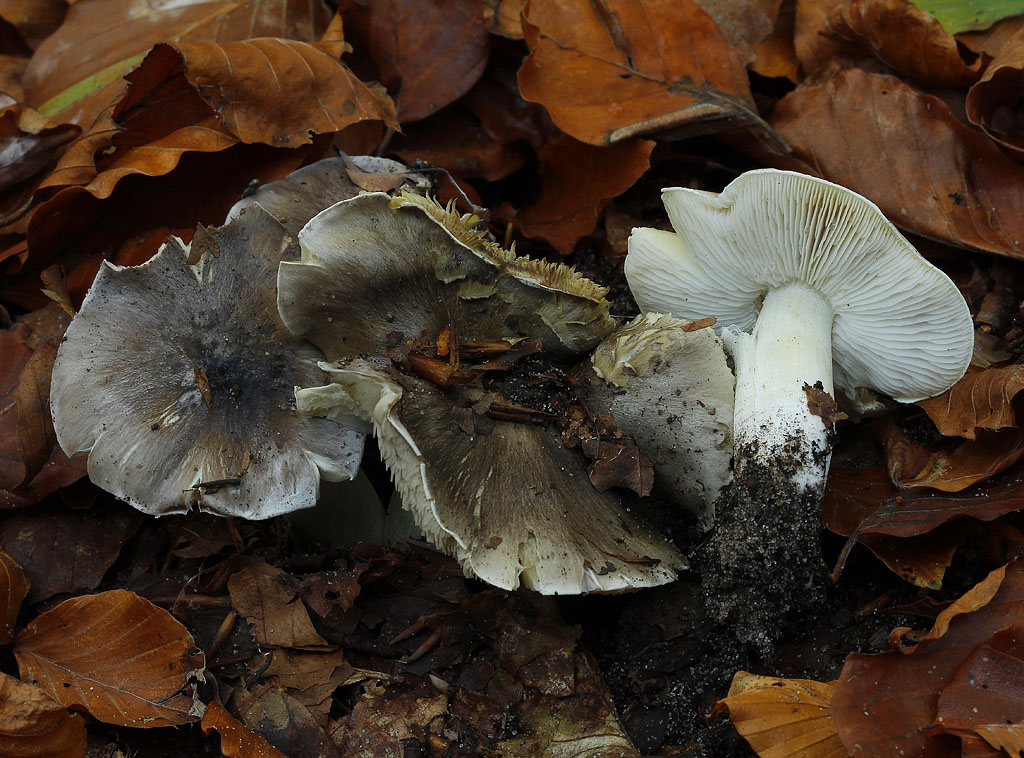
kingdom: Fungi
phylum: Basidiomycota
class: Agaricomycetes
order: Agaricales
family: Tricholomataceae
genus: Tricholoma
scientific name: Tricholoma portentosum
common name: grå ridderhat
